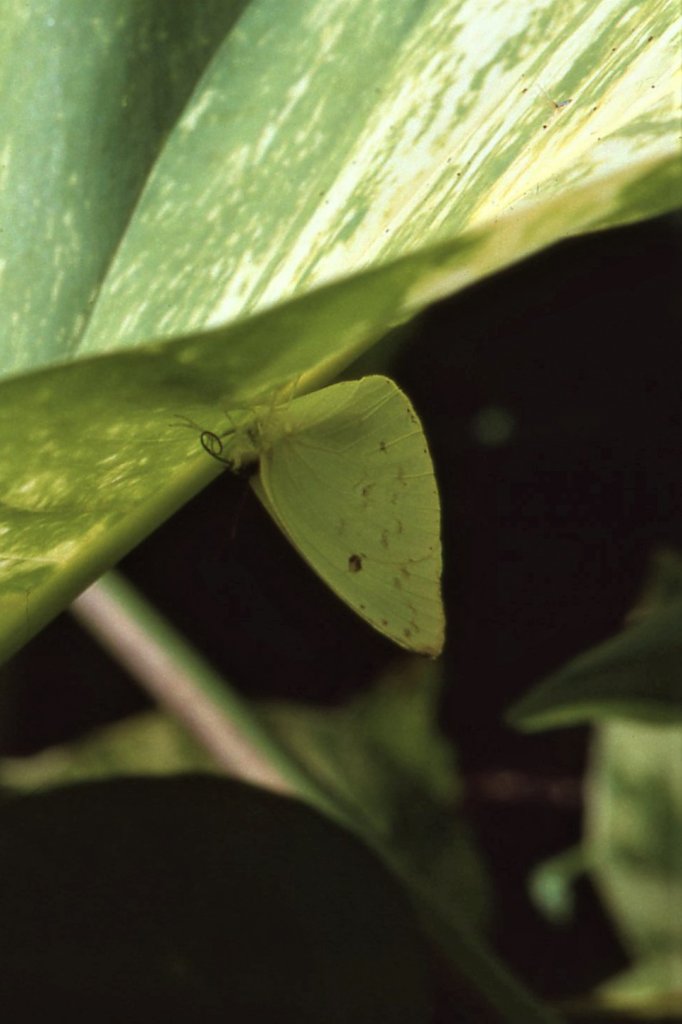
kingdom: Animalia
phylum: Arthropoda
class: Insecta
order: Lepidoptera
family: Pieridae
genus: Aphrissa
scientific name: Aphrissa statira
